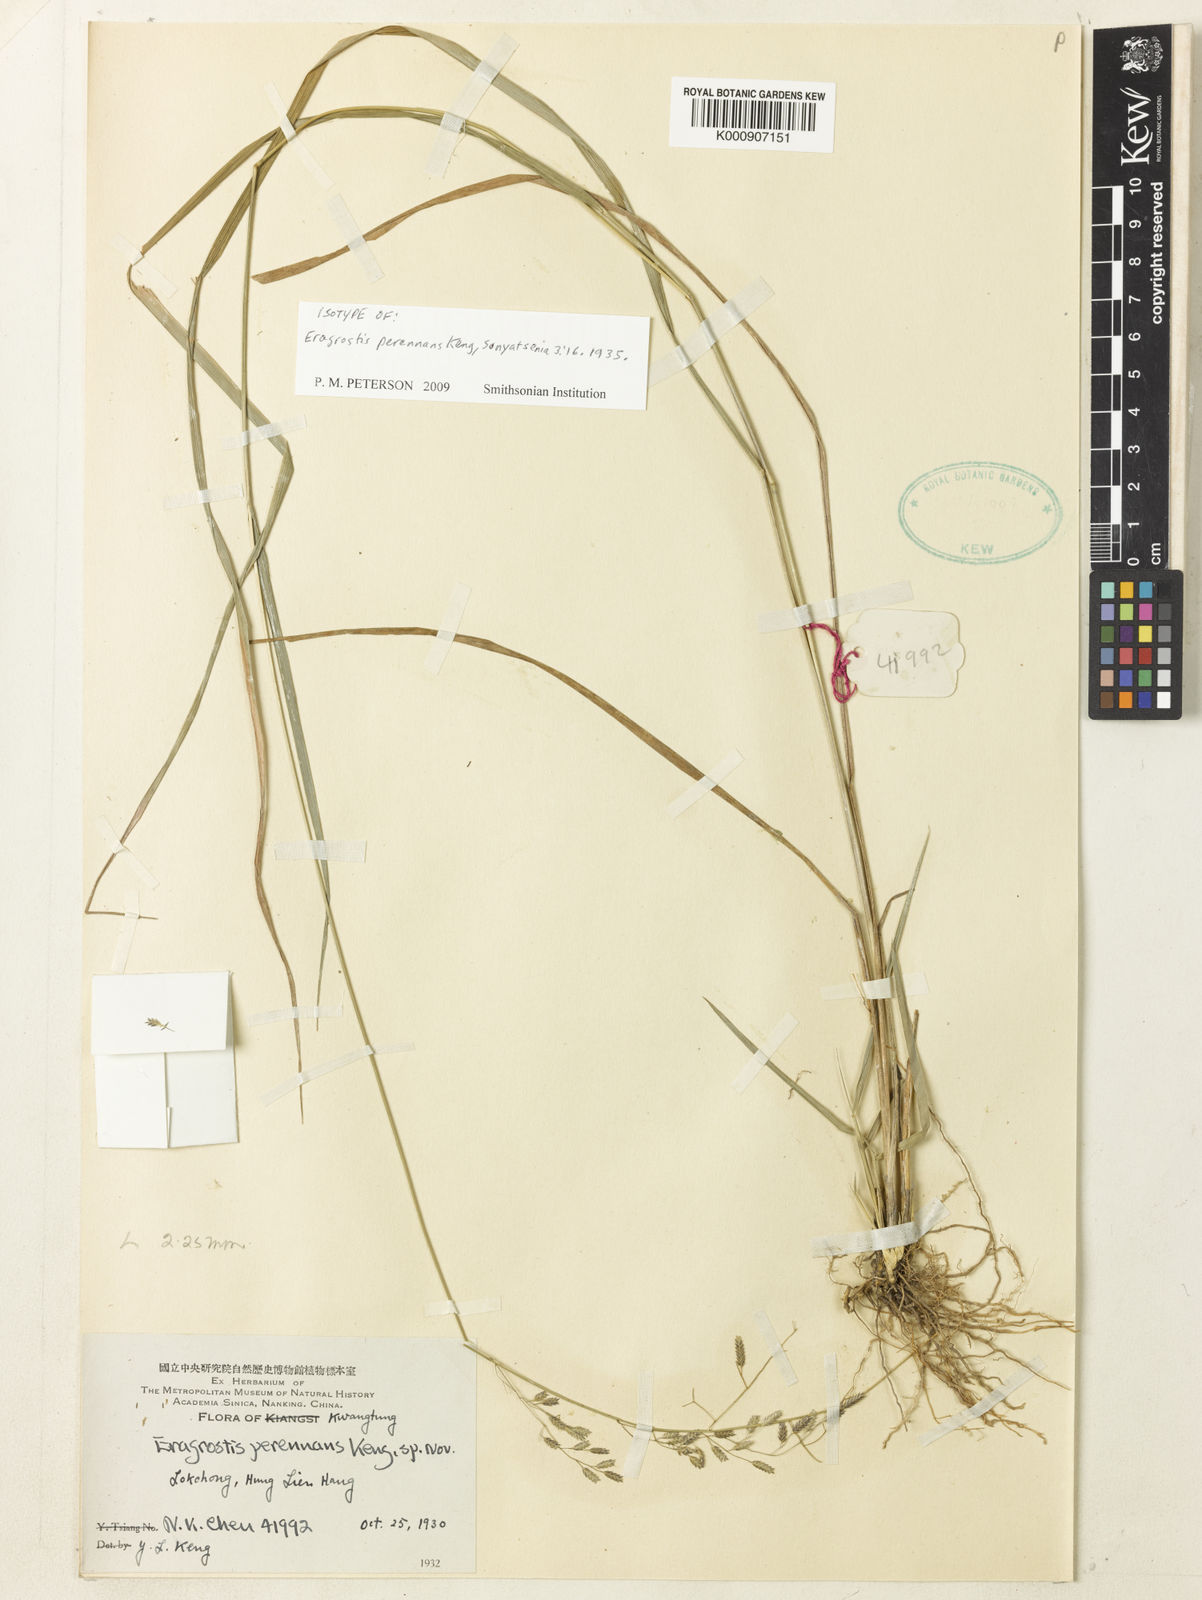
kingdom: Plantae
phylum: Tracheophyta
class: Liliopsida
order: Poales
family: Poaceae
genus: Eragrostis
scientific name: Eragrostis perennans
